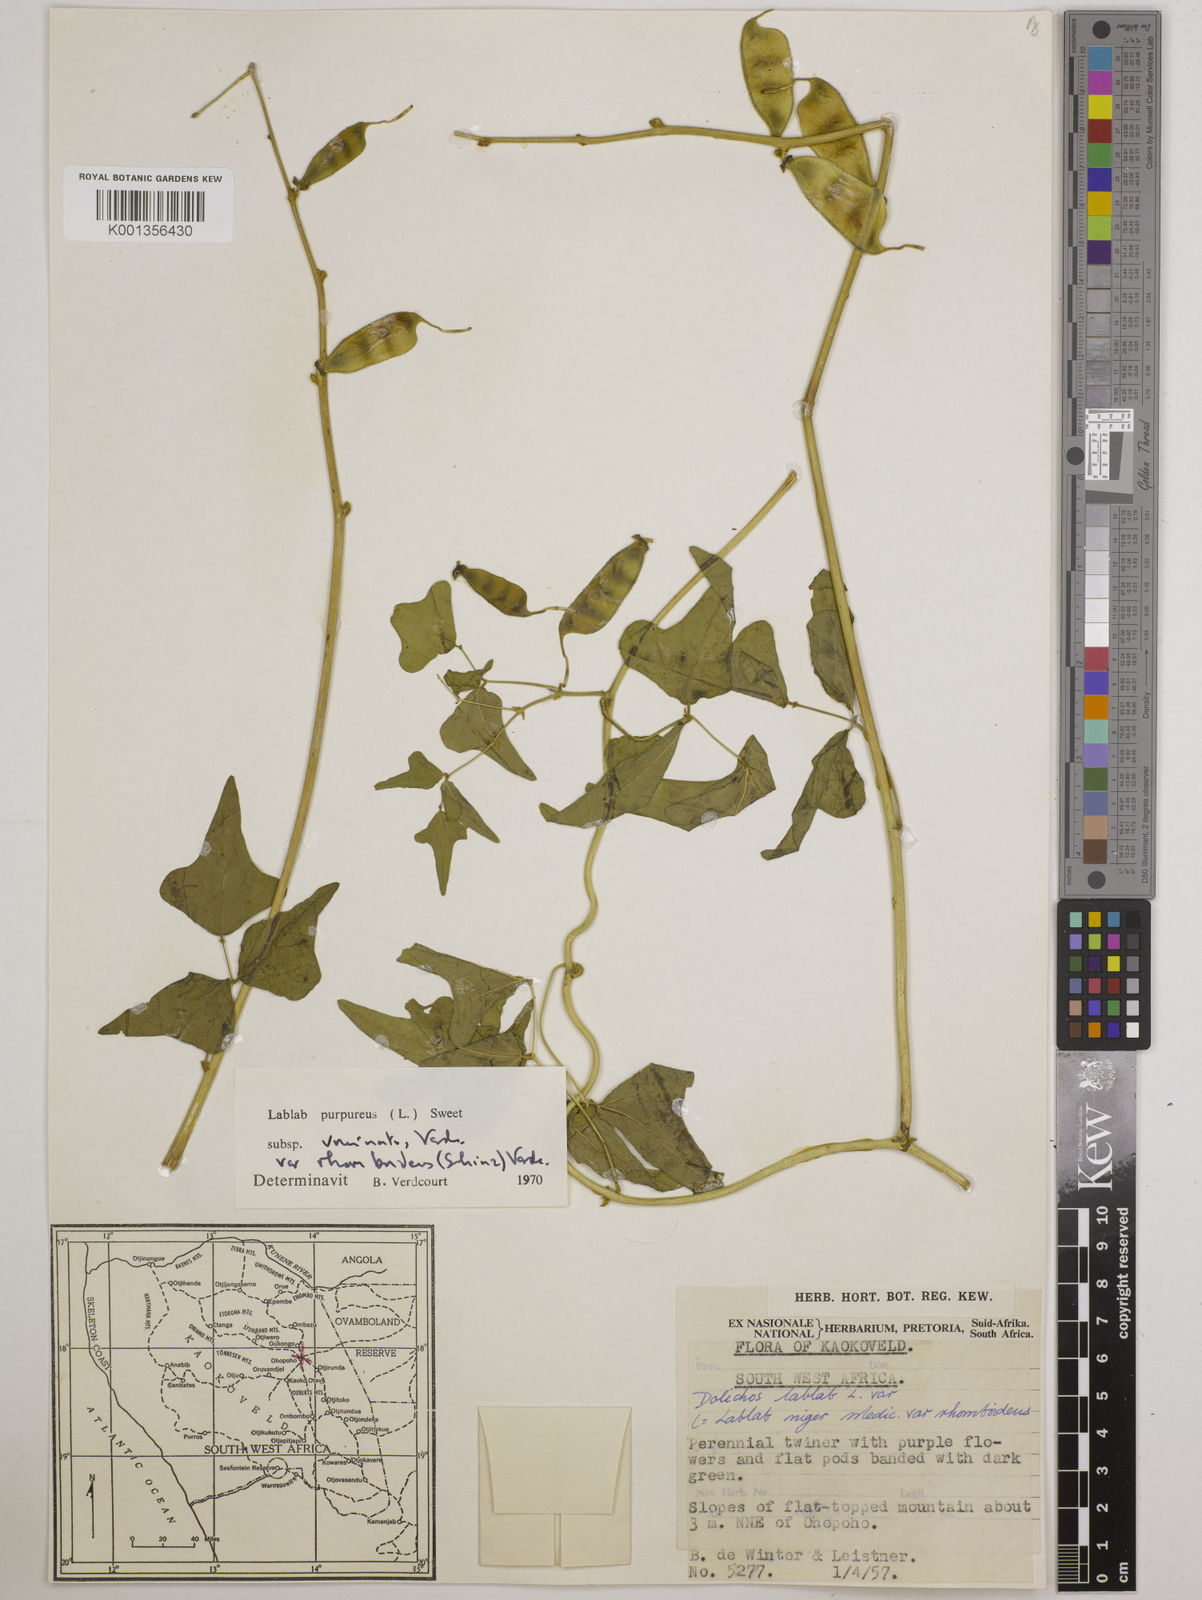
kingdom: Plantae
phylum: Tracheophyta
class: Magnoliopsida
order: Fabales
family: Fabaceae
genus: Lablab
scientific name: Lablab purpureus
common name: Lablab-bean
